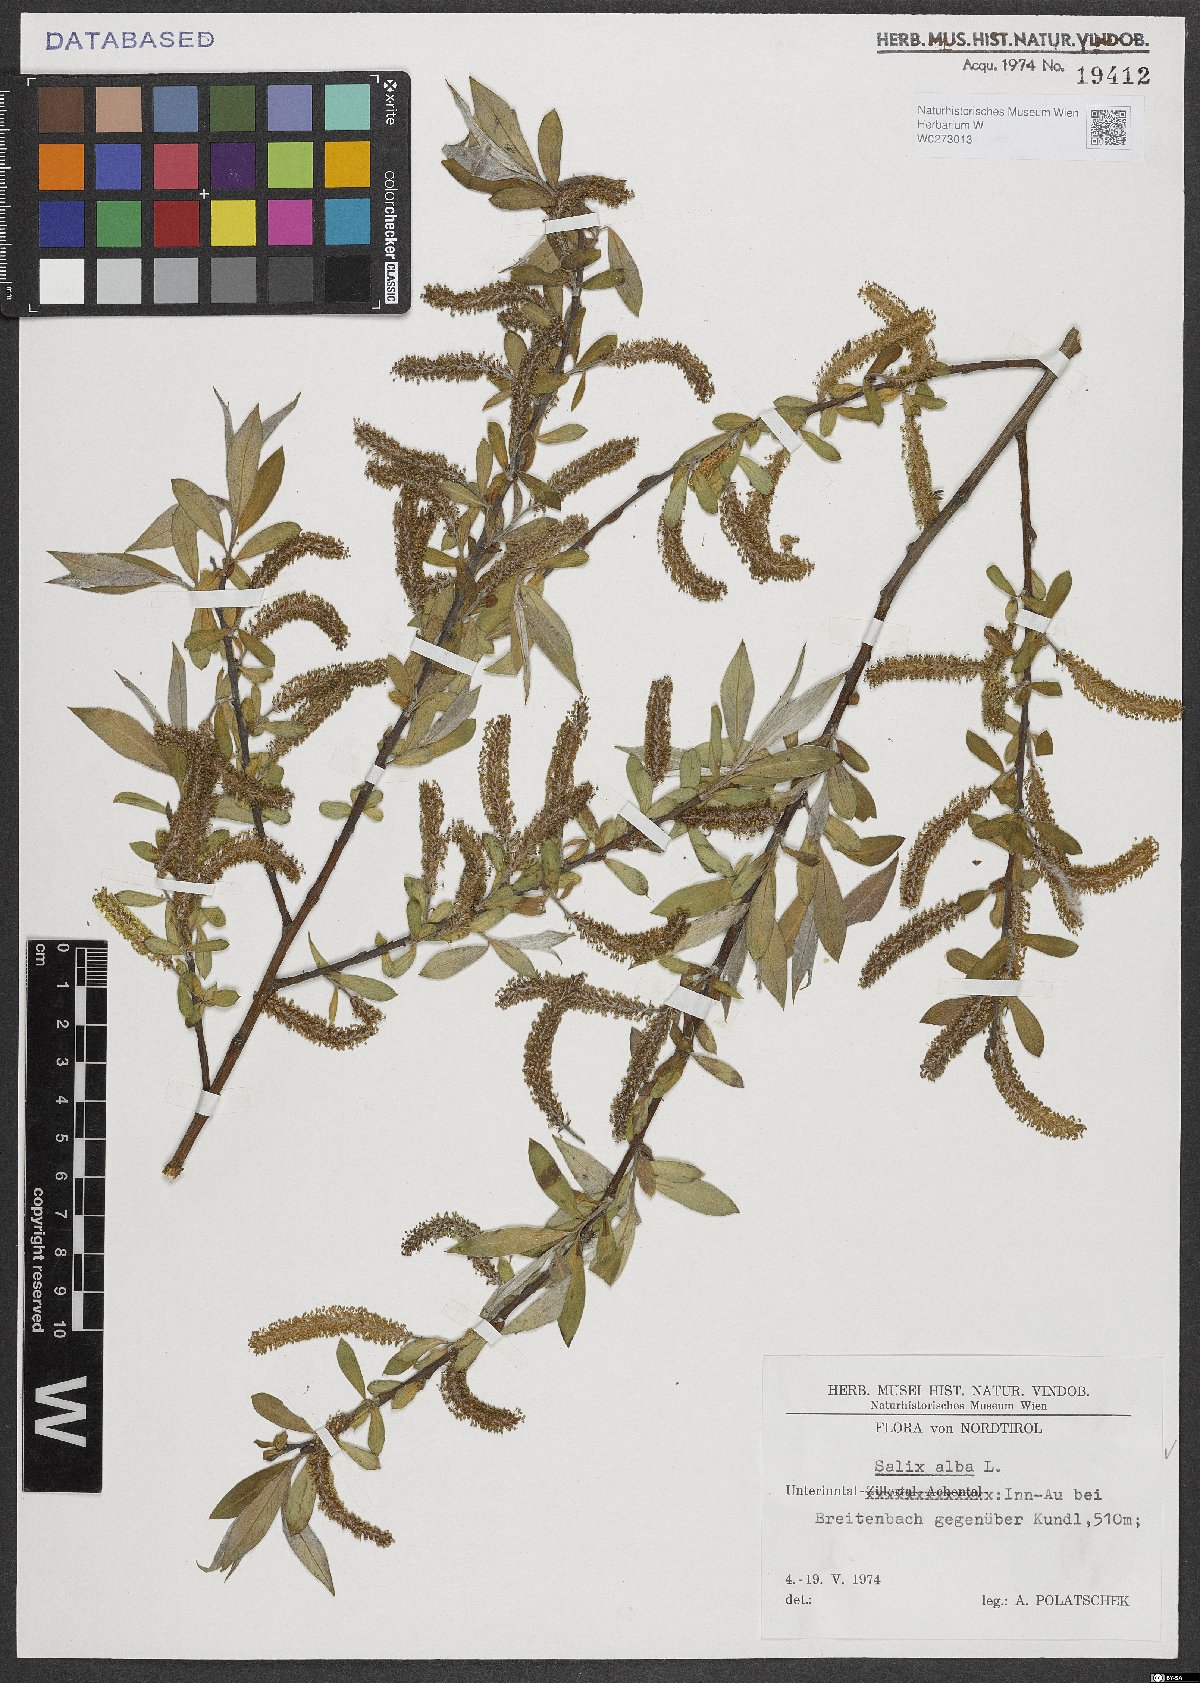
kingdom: Plantae
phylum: Tracheophyta
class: Magnoliopsida
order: Malpighiales
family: Salicaceae
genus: Salix
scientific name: Salix alba
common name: White willow
